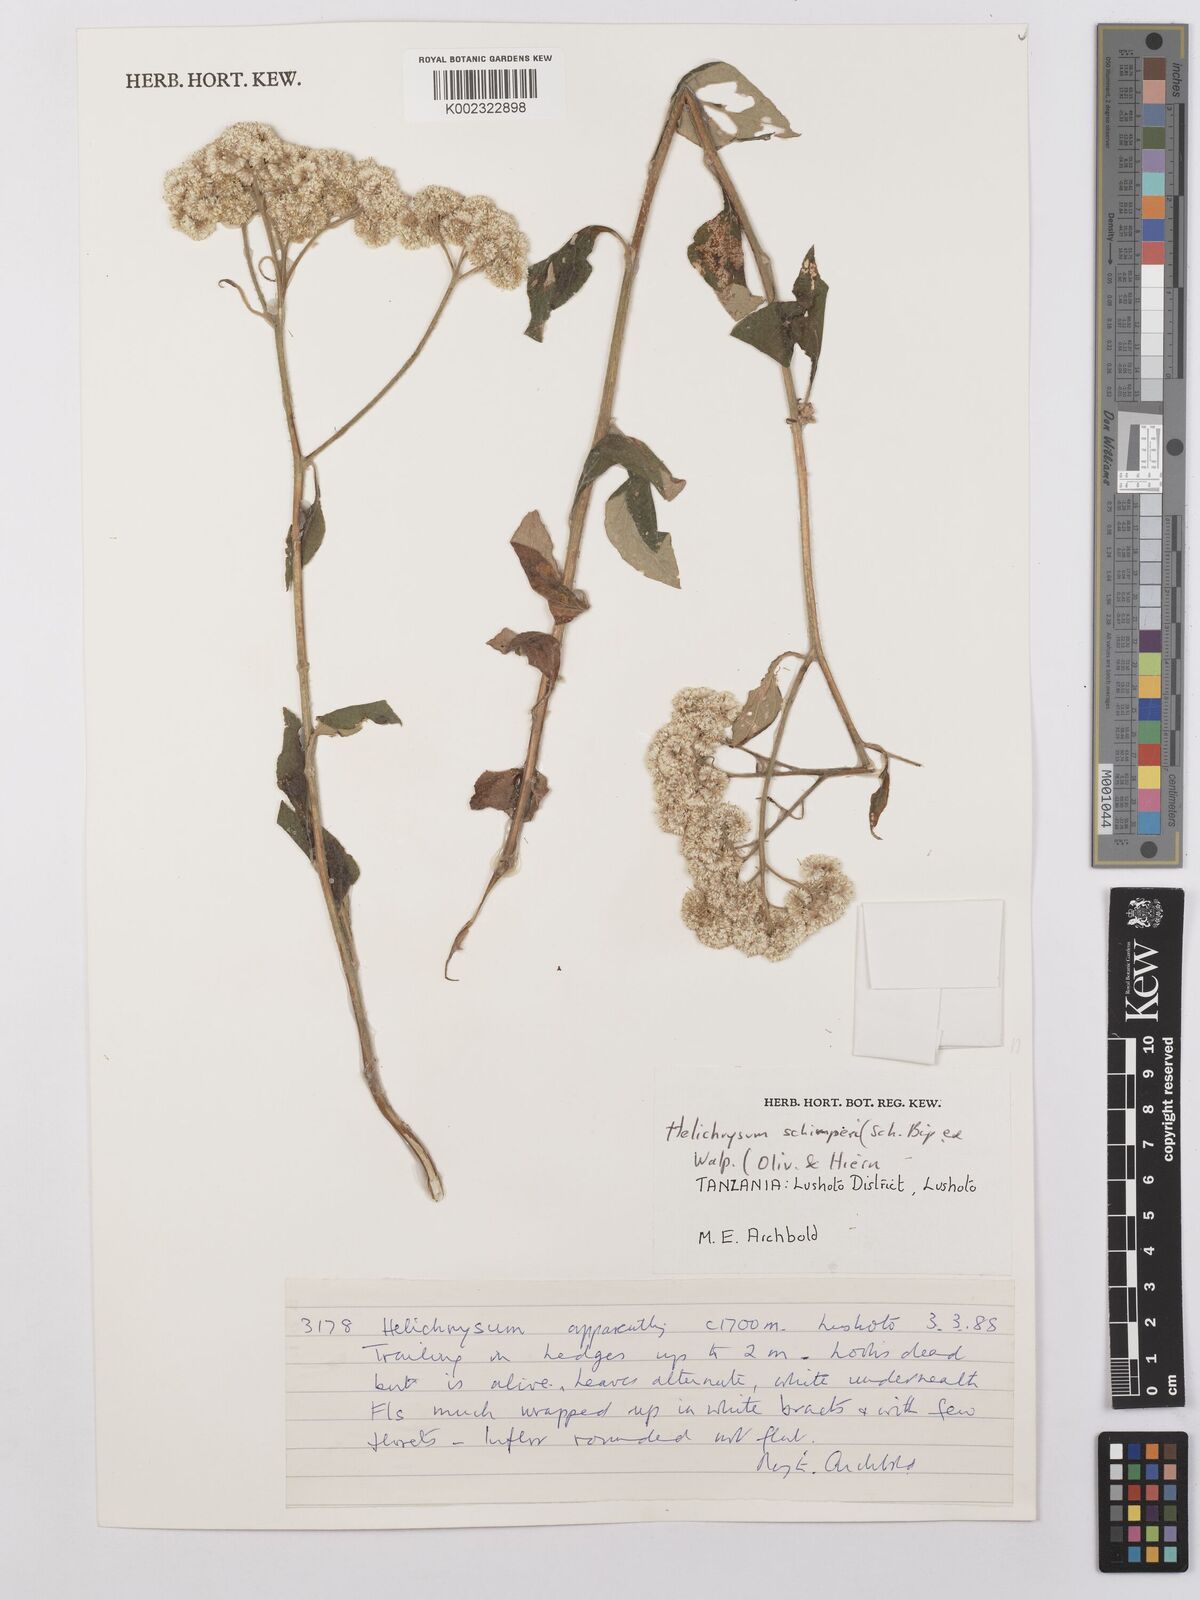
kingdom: Plantae
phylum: Tracheophyta
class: Magnoliopsida
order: Asterales
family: Asteraceae
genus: Helichrysum
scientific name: Helichrysum schimperi
